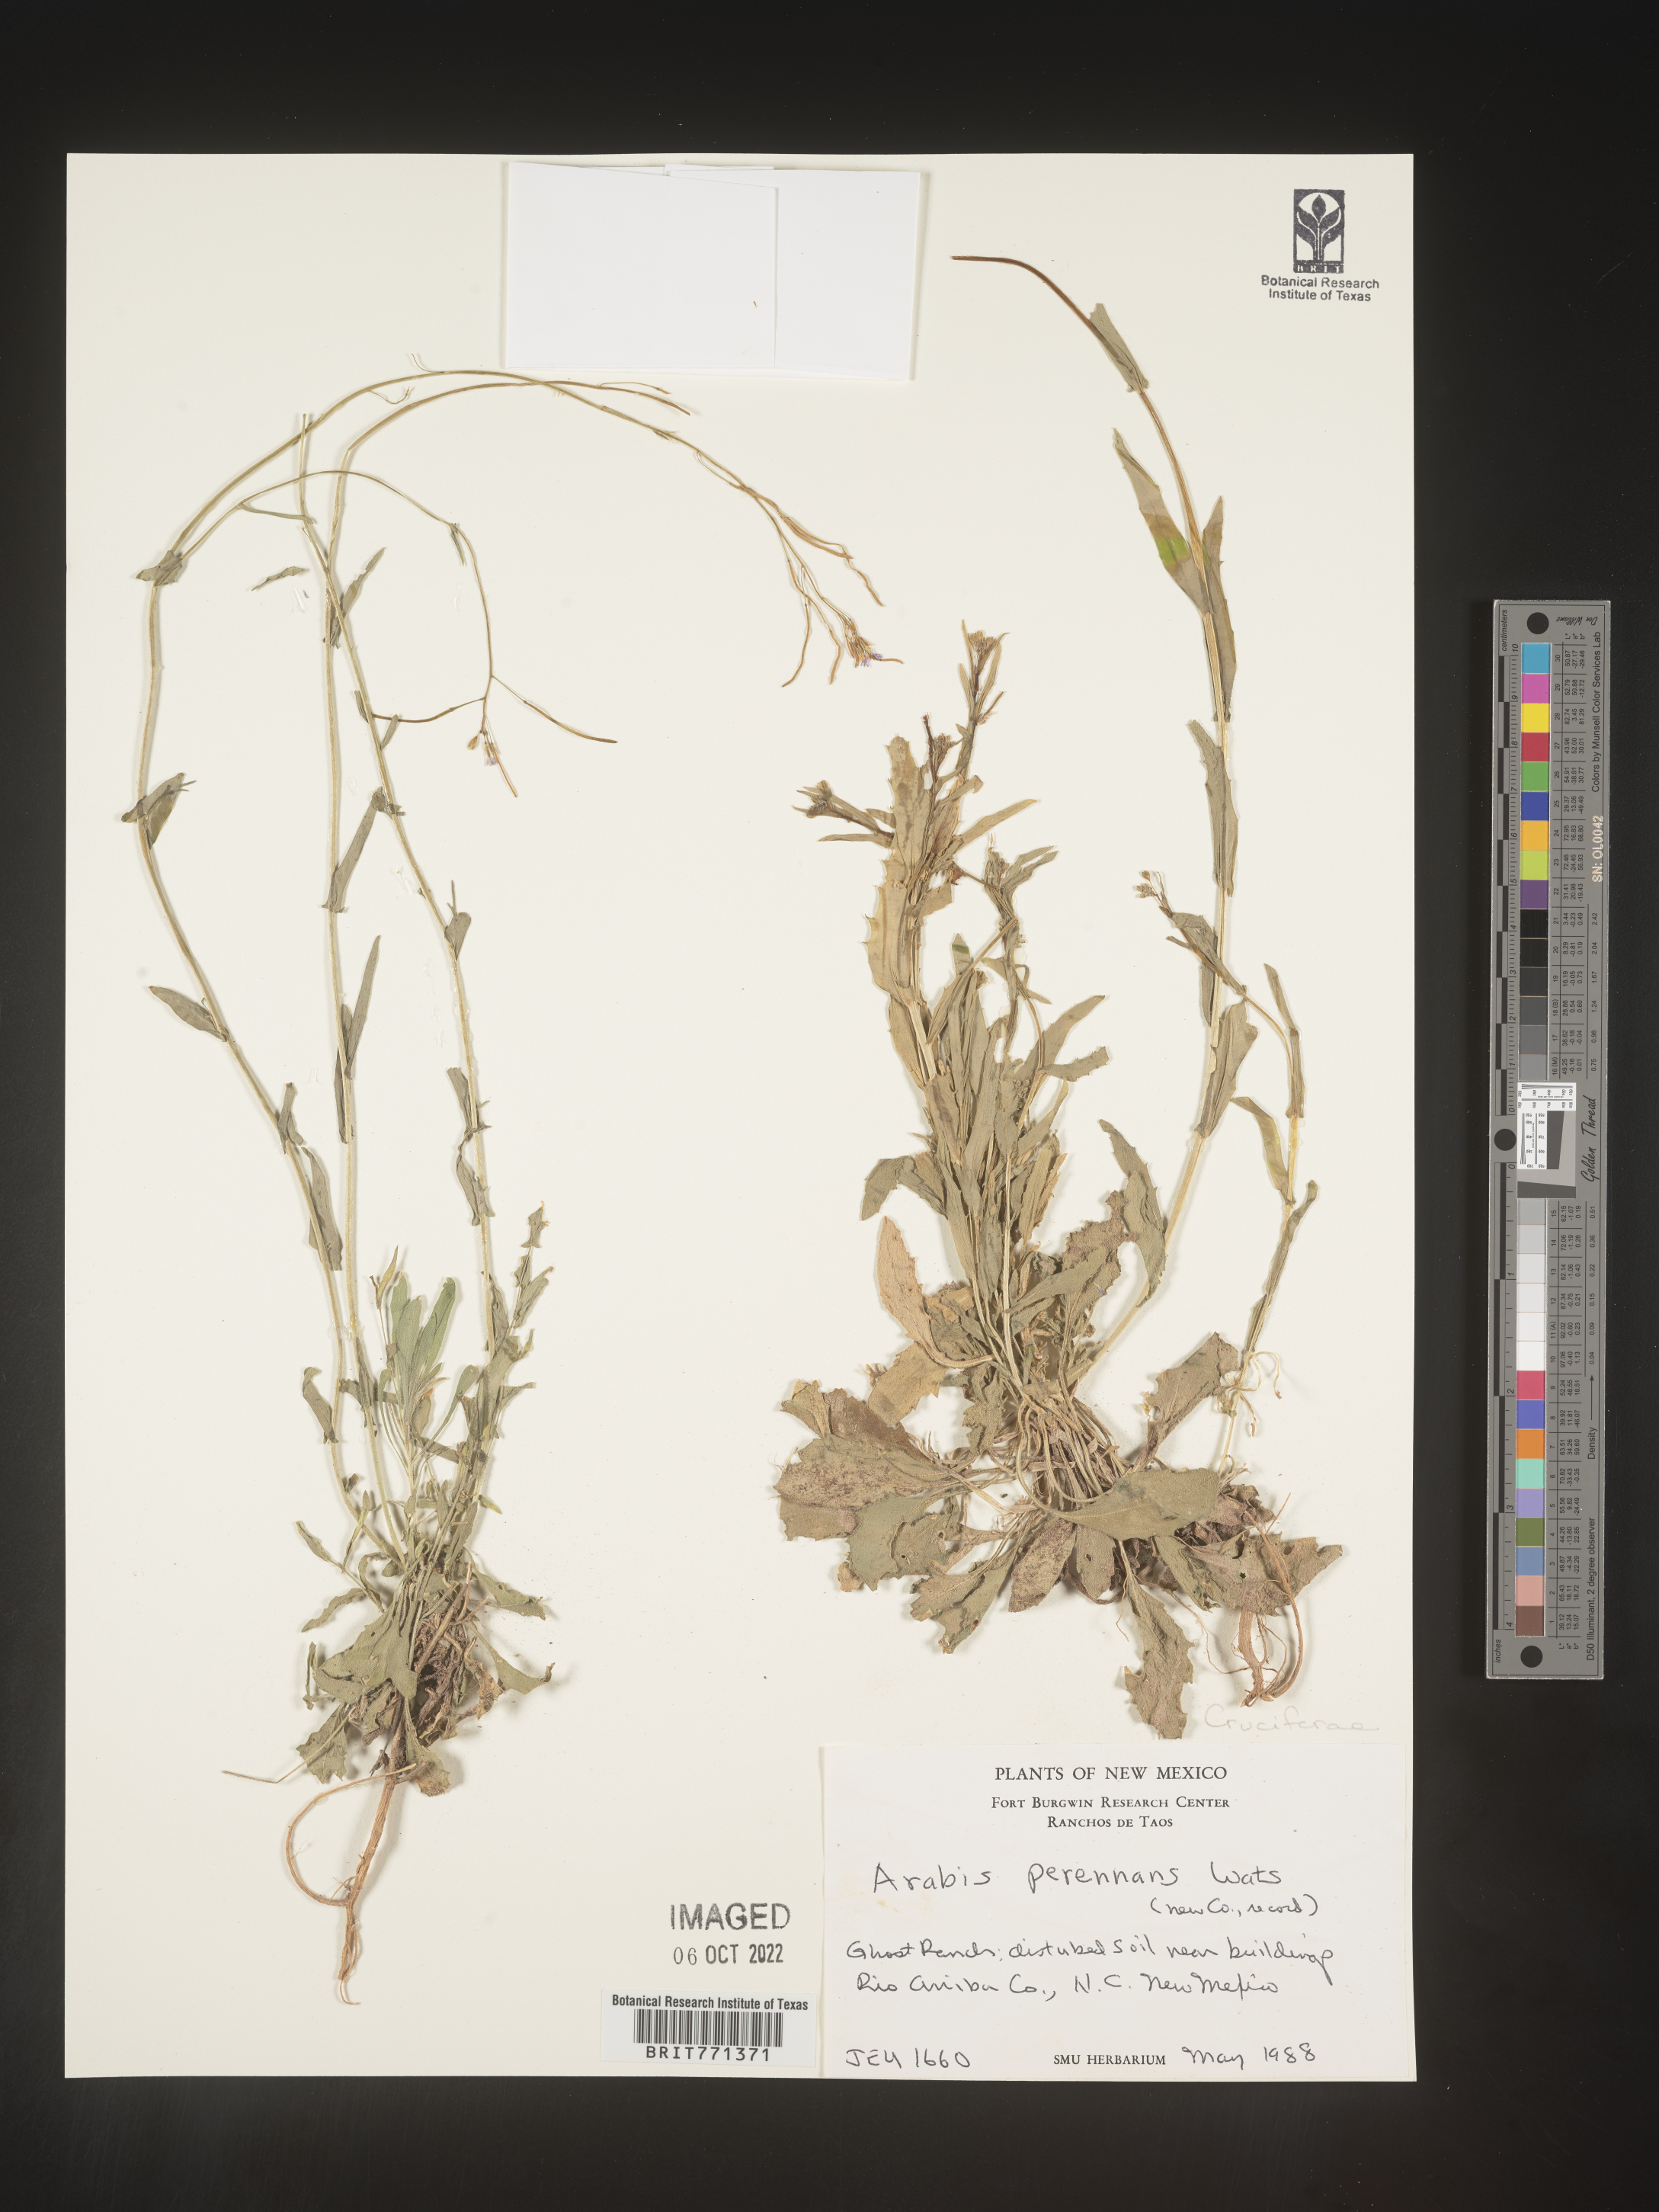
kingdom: Plantae
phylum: Tracheophyta
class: Magnoliopsida
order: Brassicales
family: Brassicaceae
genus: Arabis
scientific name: Arabis
